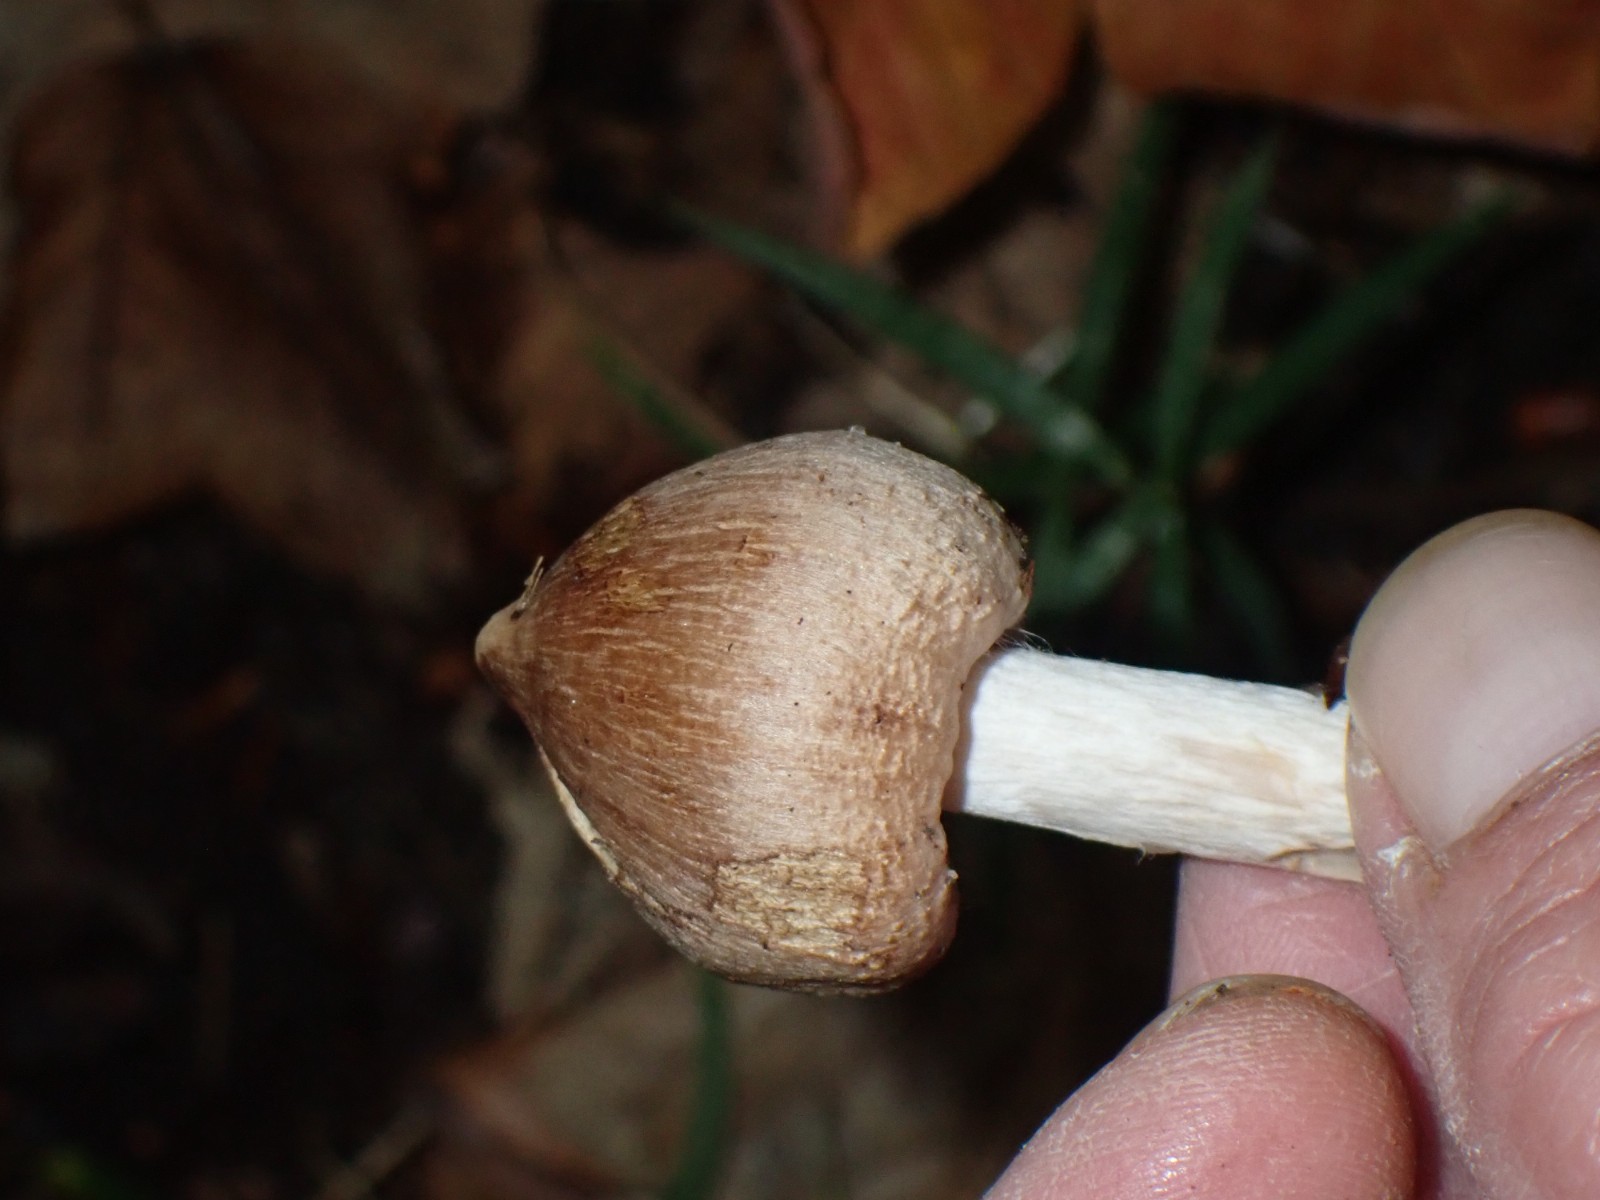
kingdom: Fungi
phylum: Basidiomycota
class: Agaricomycetes
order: Agaricales
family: Inocybaceae
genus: Inocybe
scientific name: Inocybe
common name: trævlhat
